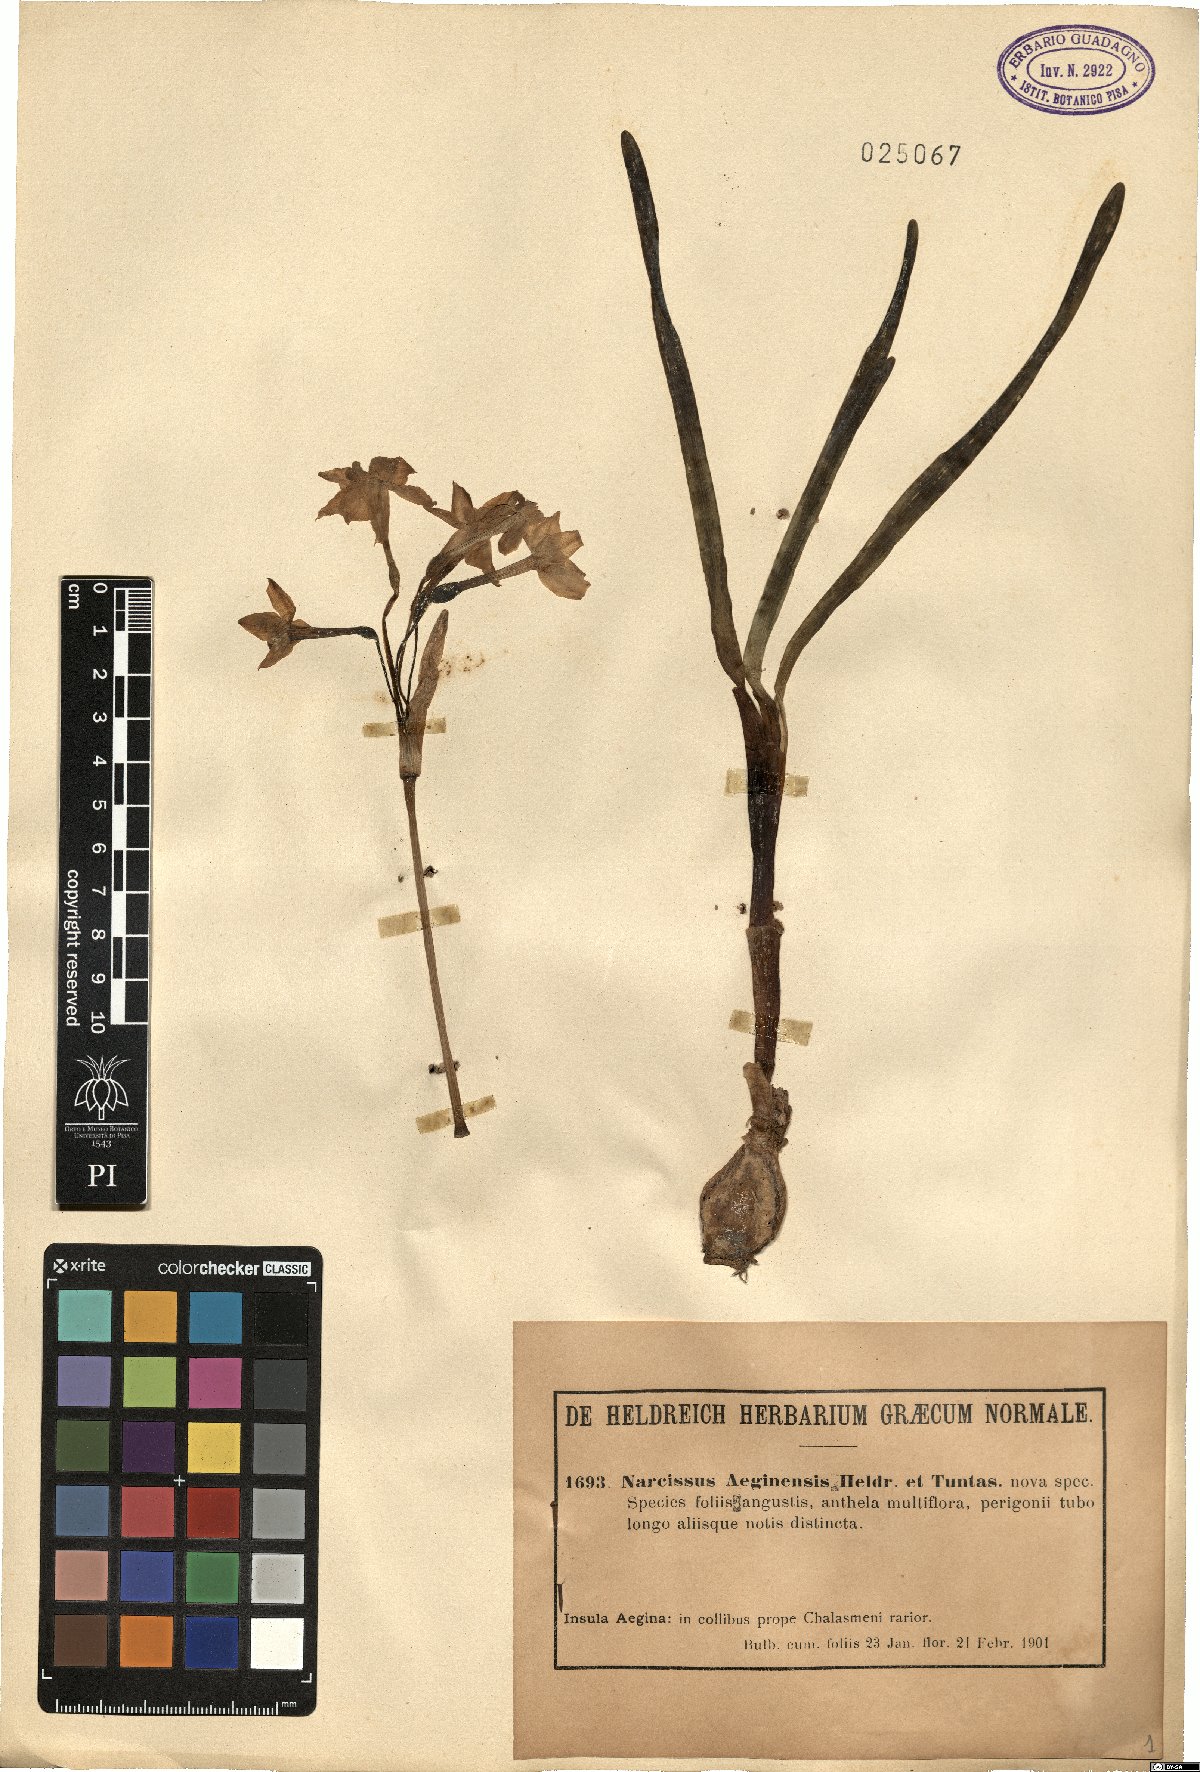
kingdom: Plantae
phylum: Tracheophyta
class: Liliopsida
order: Asparagales
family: Amaryllidaceae
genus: Narcissus
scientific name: Narcissus
